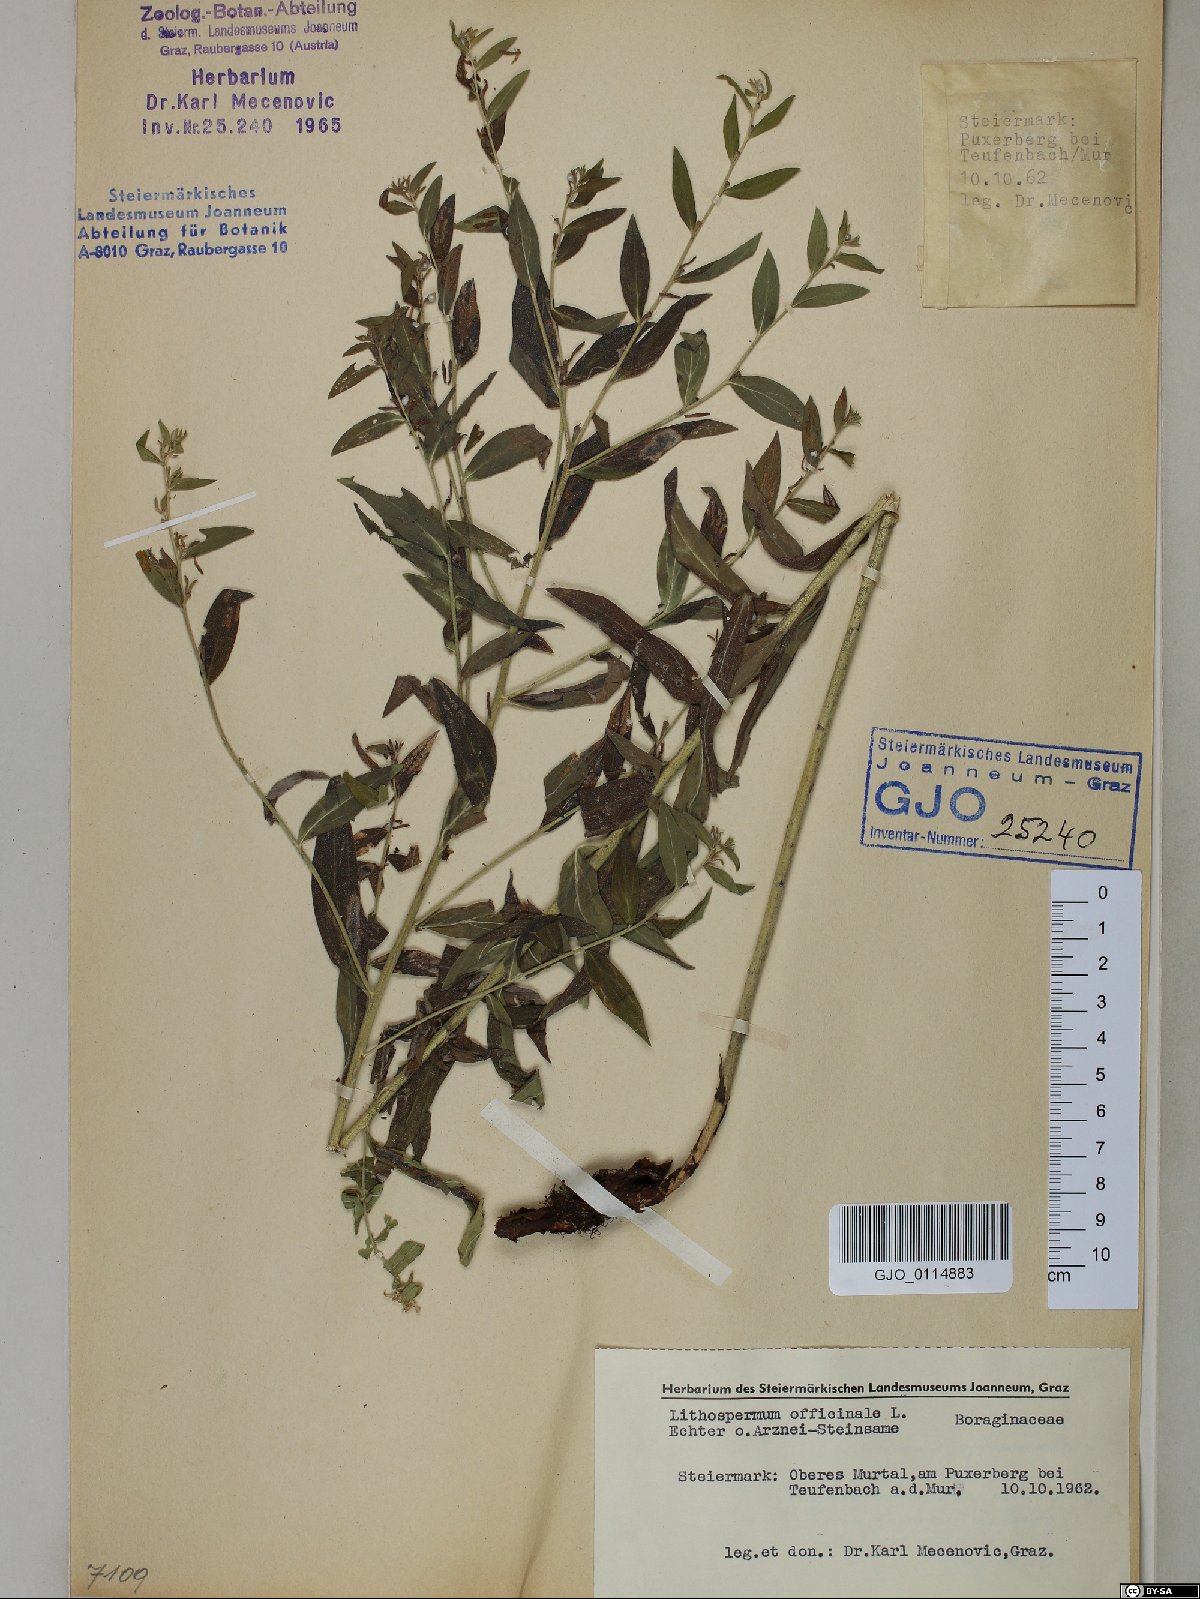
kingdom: Plantae
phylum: Tracheophyta
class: Magnoliopsida
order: Boraginales
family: Boraginaceae
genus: Lithospermum
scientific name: Lithospermum officinale
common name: Common gromwell
